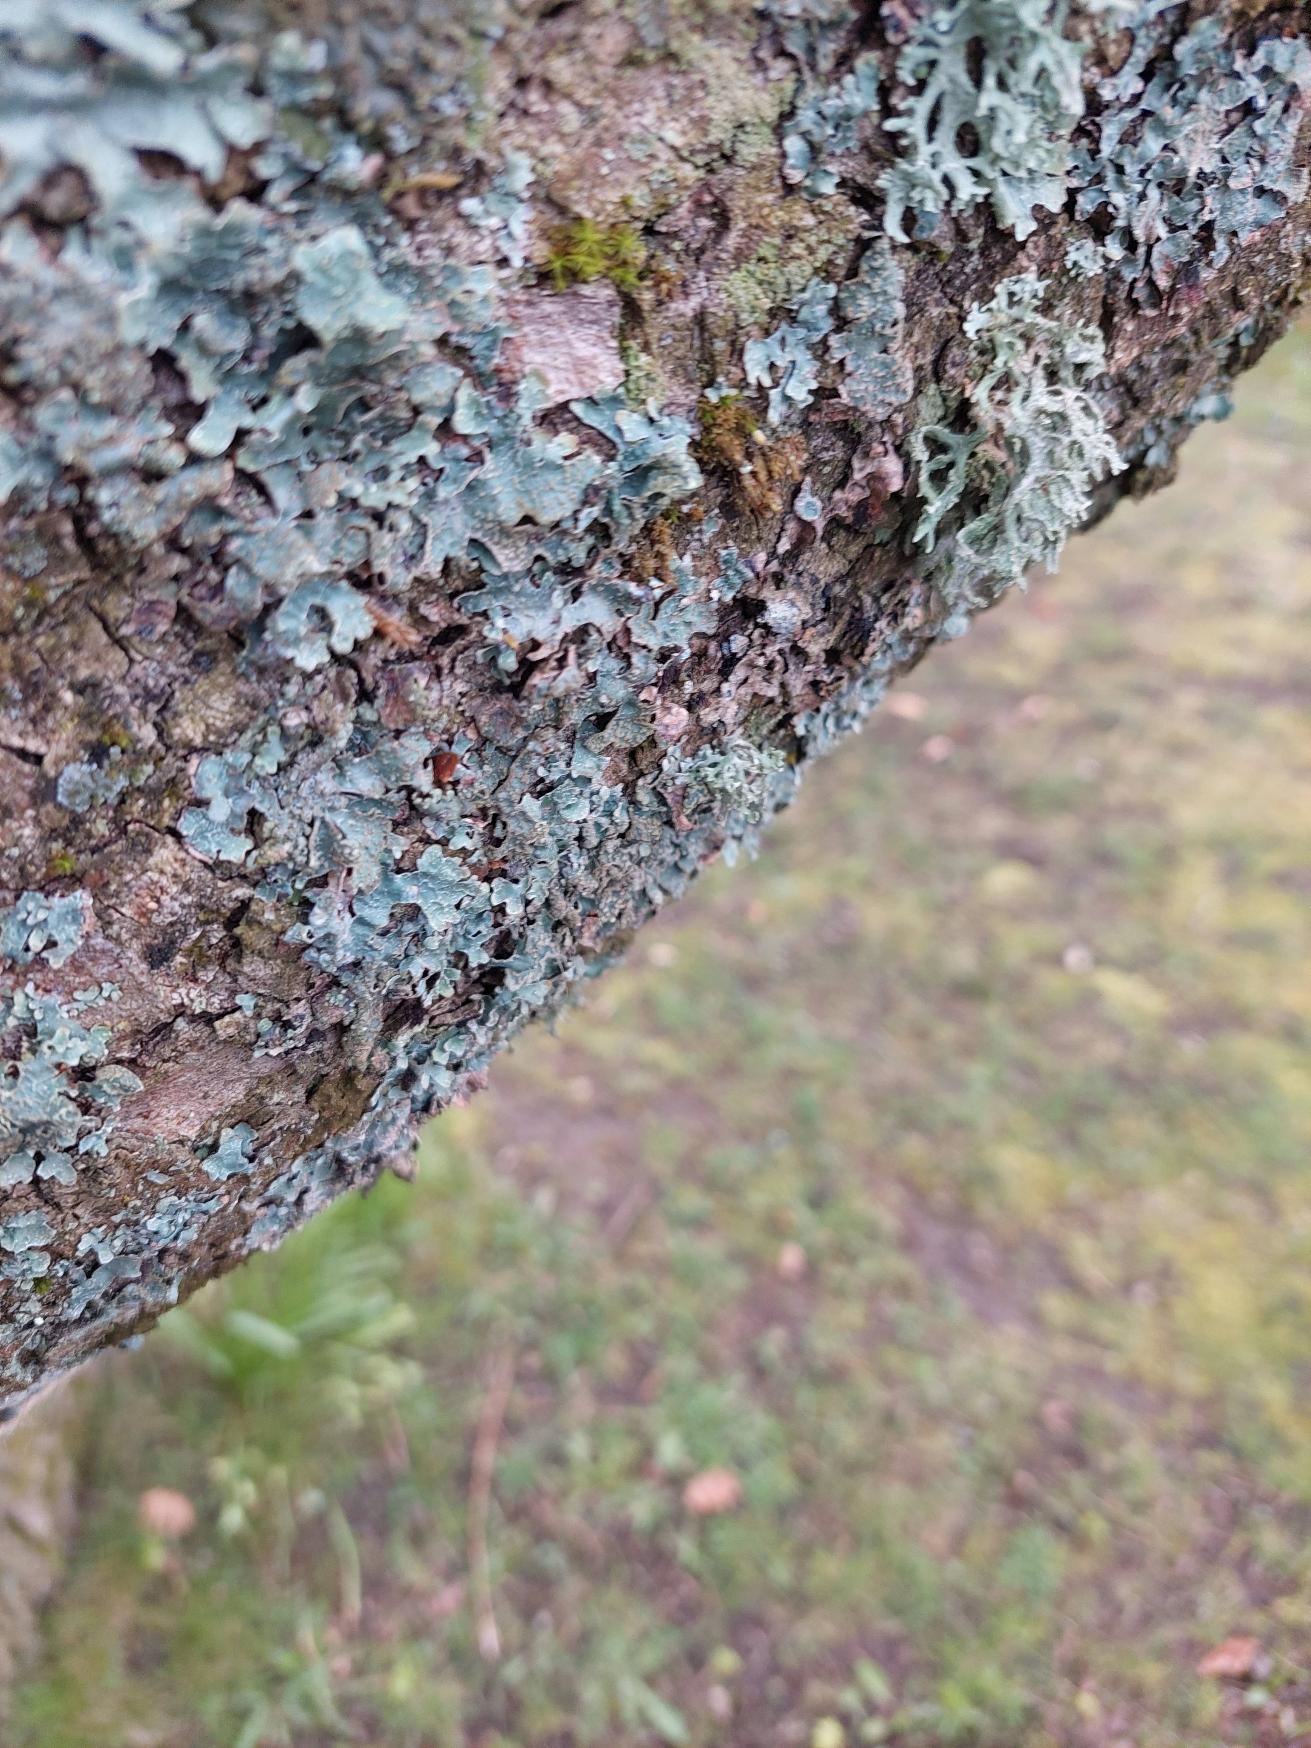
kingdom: Fungi
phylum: Ascomycota
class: Lecanoromycetes
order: Lecanorales
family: Parmeliaceae
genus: Parmelia
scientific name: Parmelia sulcata
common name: Rynket skållav
